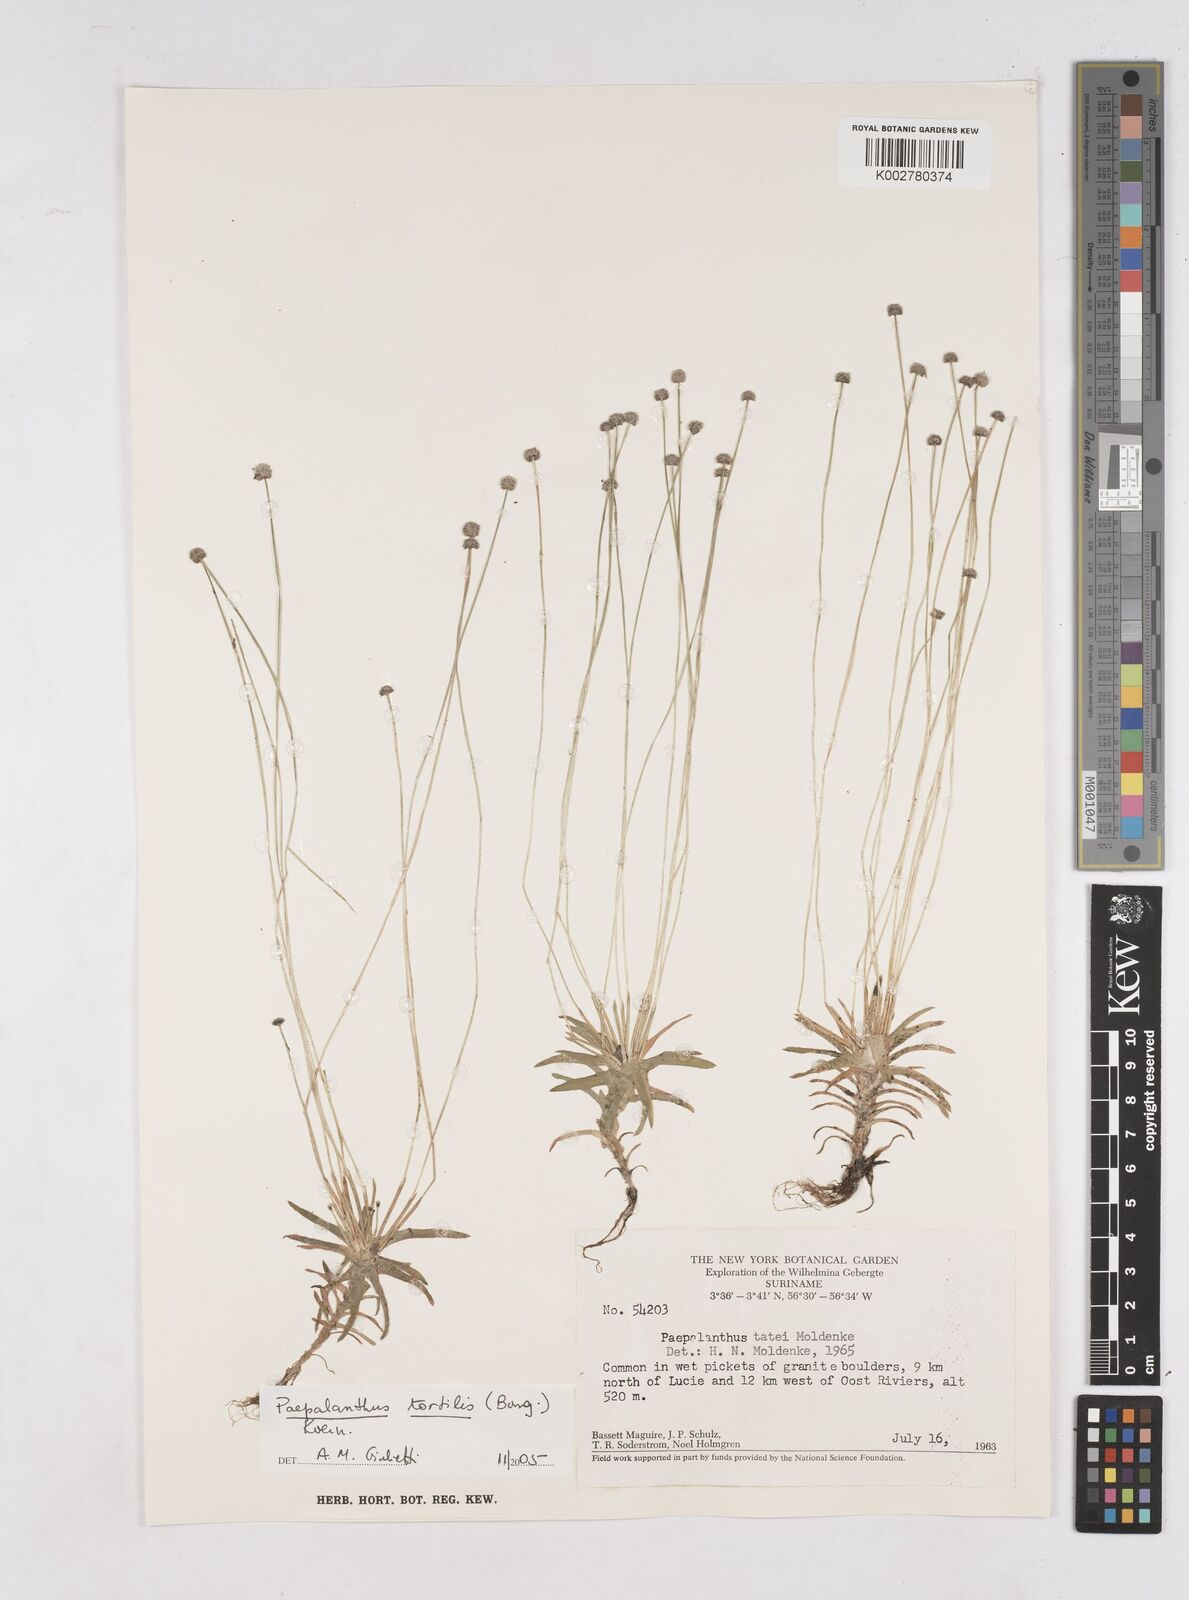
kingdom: Plantae
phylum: Tracheophyta
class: Liliopsida
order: Poales
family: Eriocaulaceae
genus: Paepalanthus
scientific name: Paepalanthus tortilis
